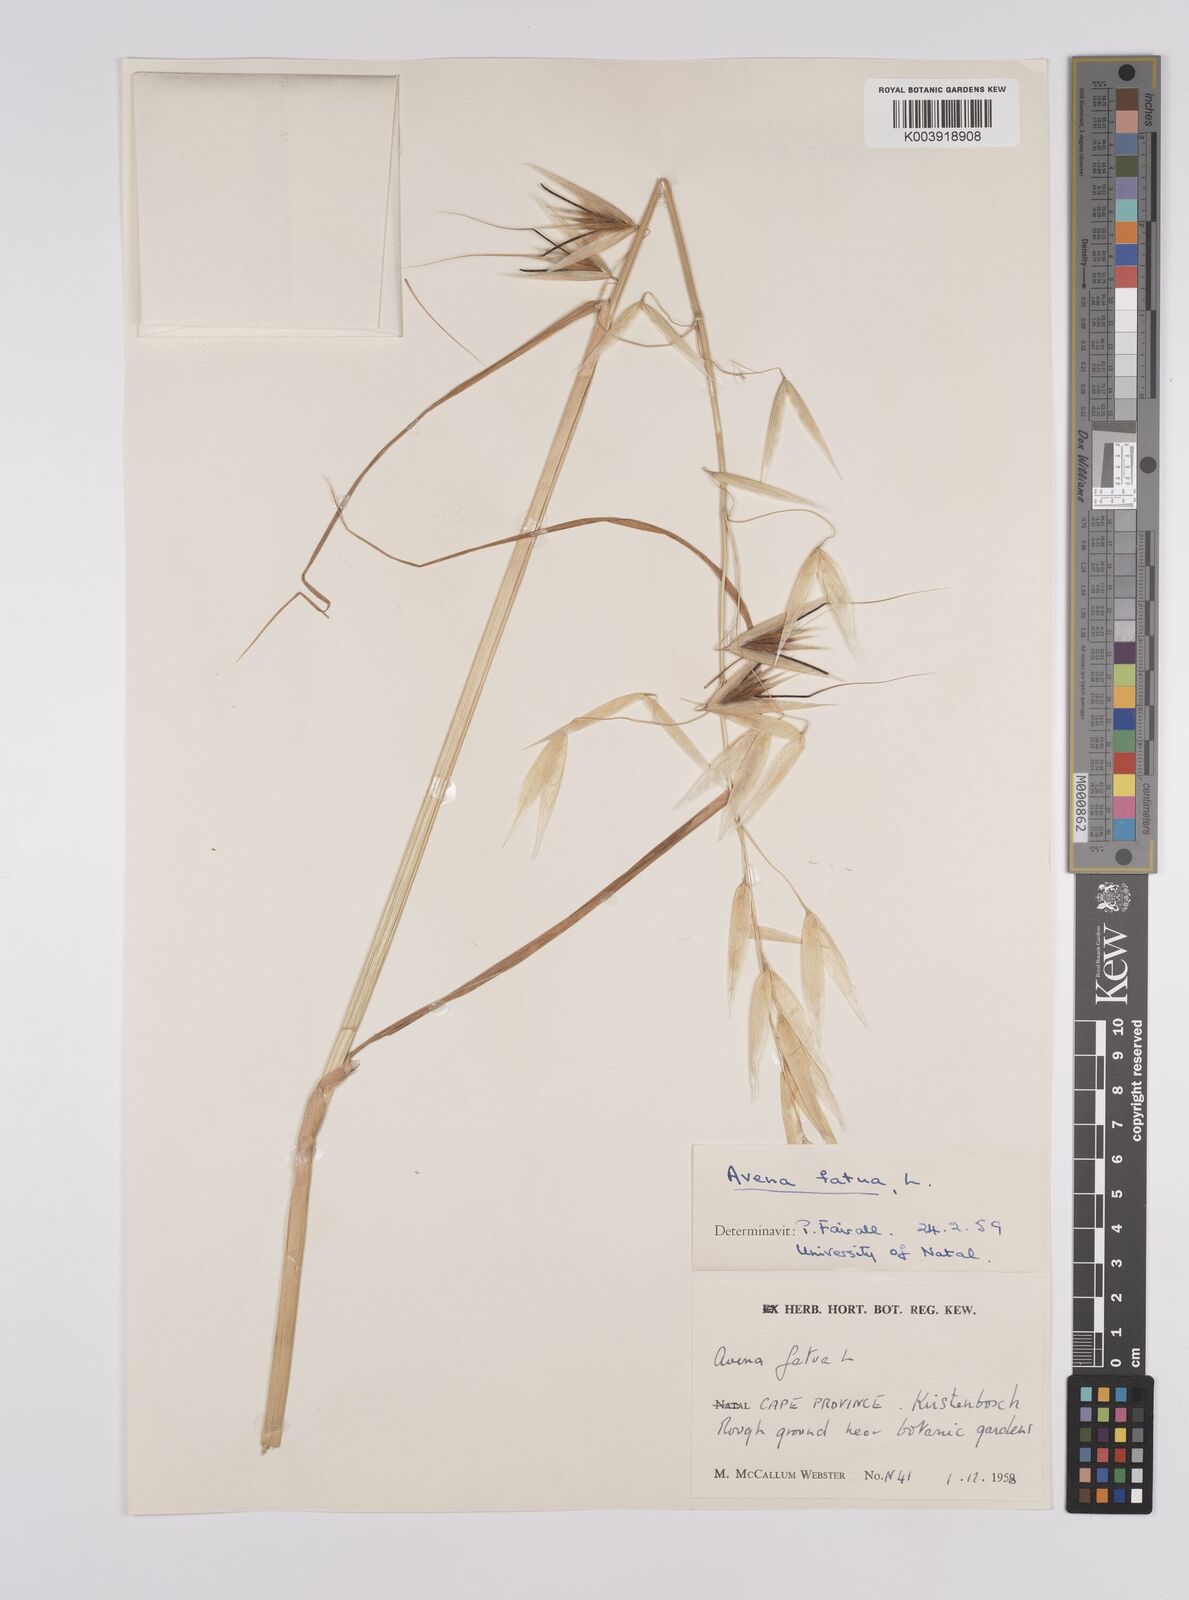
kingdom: Plantae
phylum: Tracheophyta
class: Liliopsida
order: Poales
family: Poaceae
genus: Avena
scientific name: Avena fatua
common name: Wild oat
